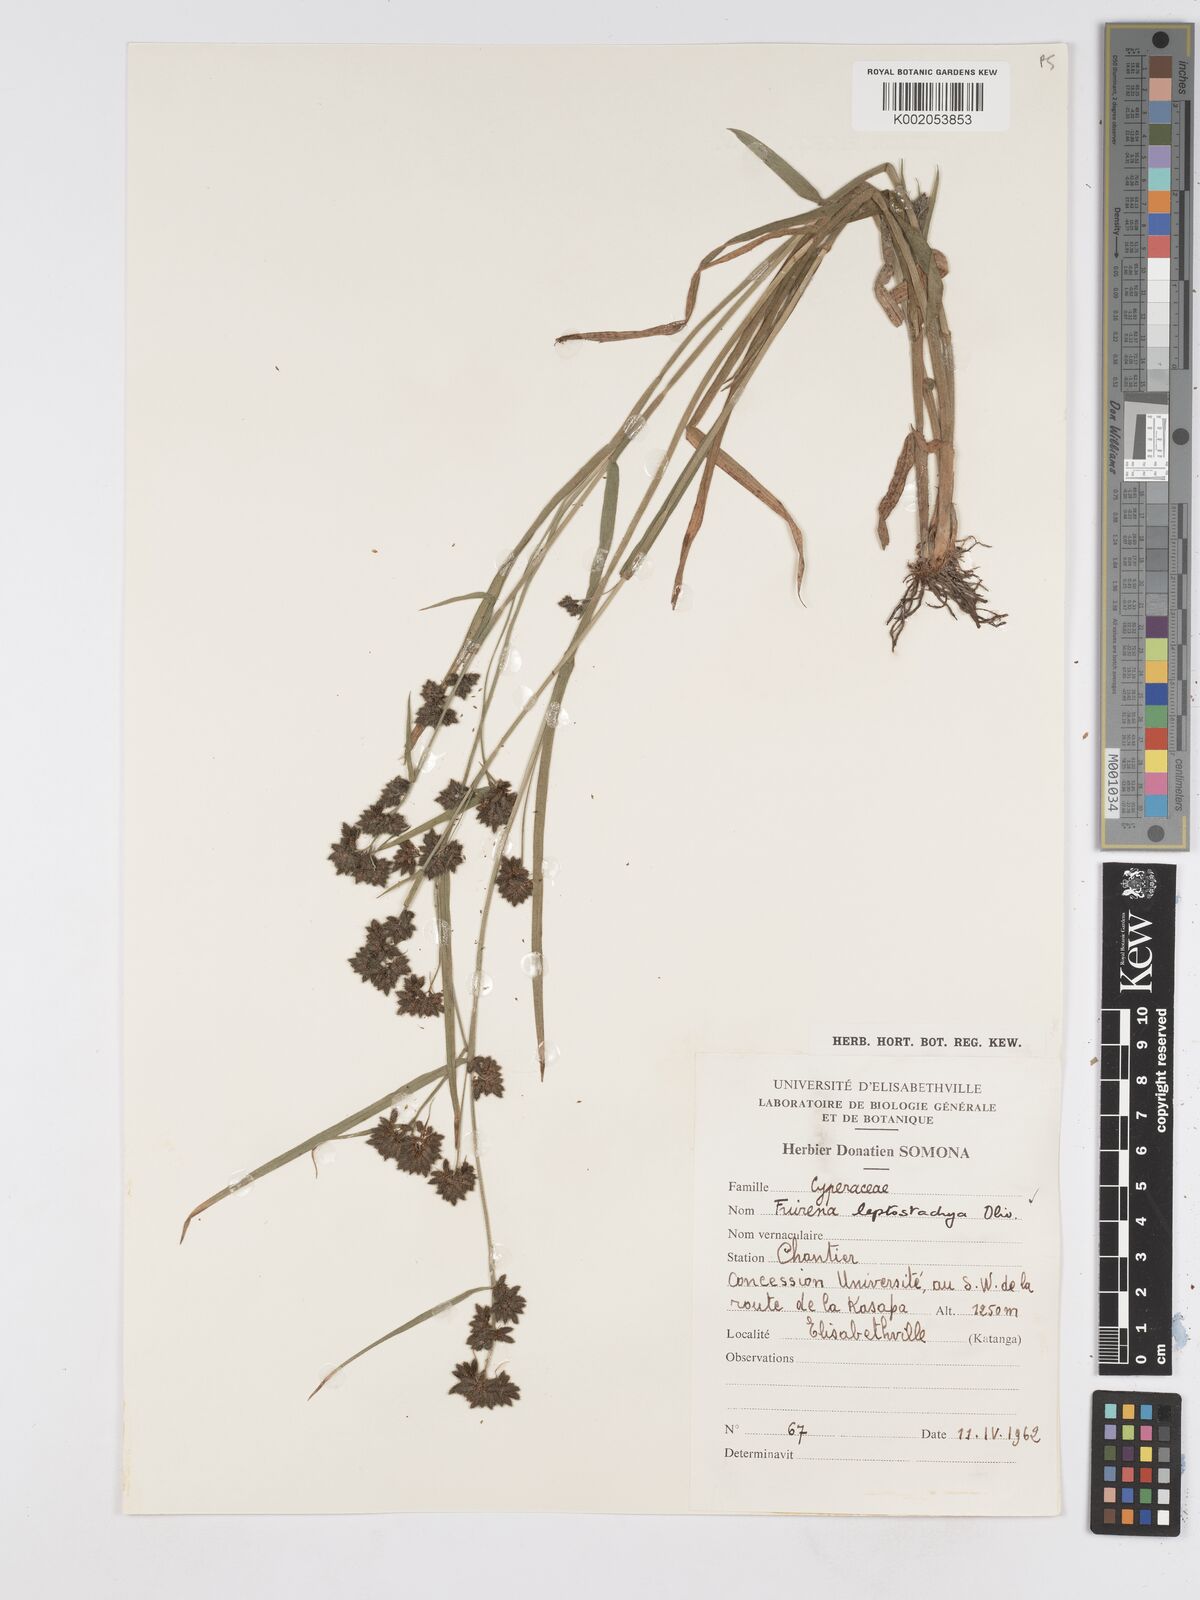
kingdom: Plantae
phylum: Tracheophyta
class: Liliopsida
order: Poales
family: Cyperaceae
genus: Fuirena
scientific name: Fuirena leptostachya
